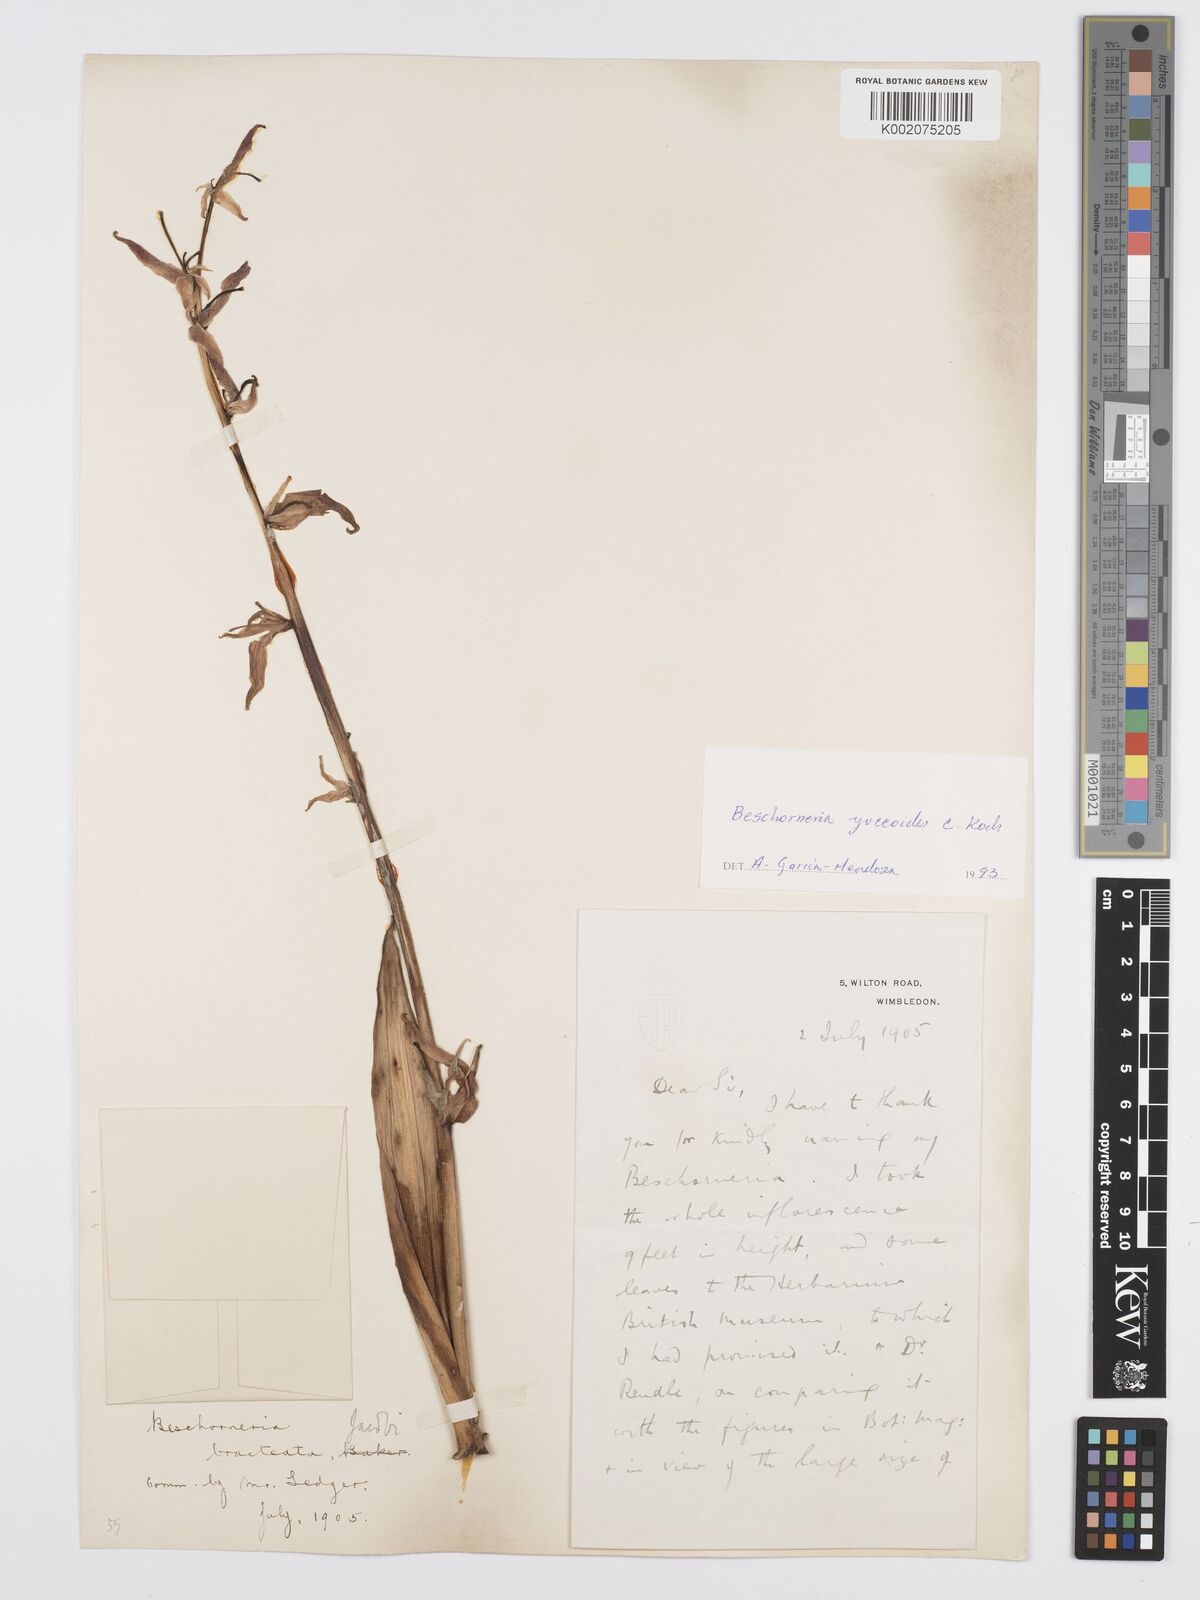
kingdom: Plantae
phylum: Tracheophyta
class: Liliopsida
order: Asparagales
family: Asparagaceae
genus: Beschorneria
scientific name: Beschorneria yuccoides
